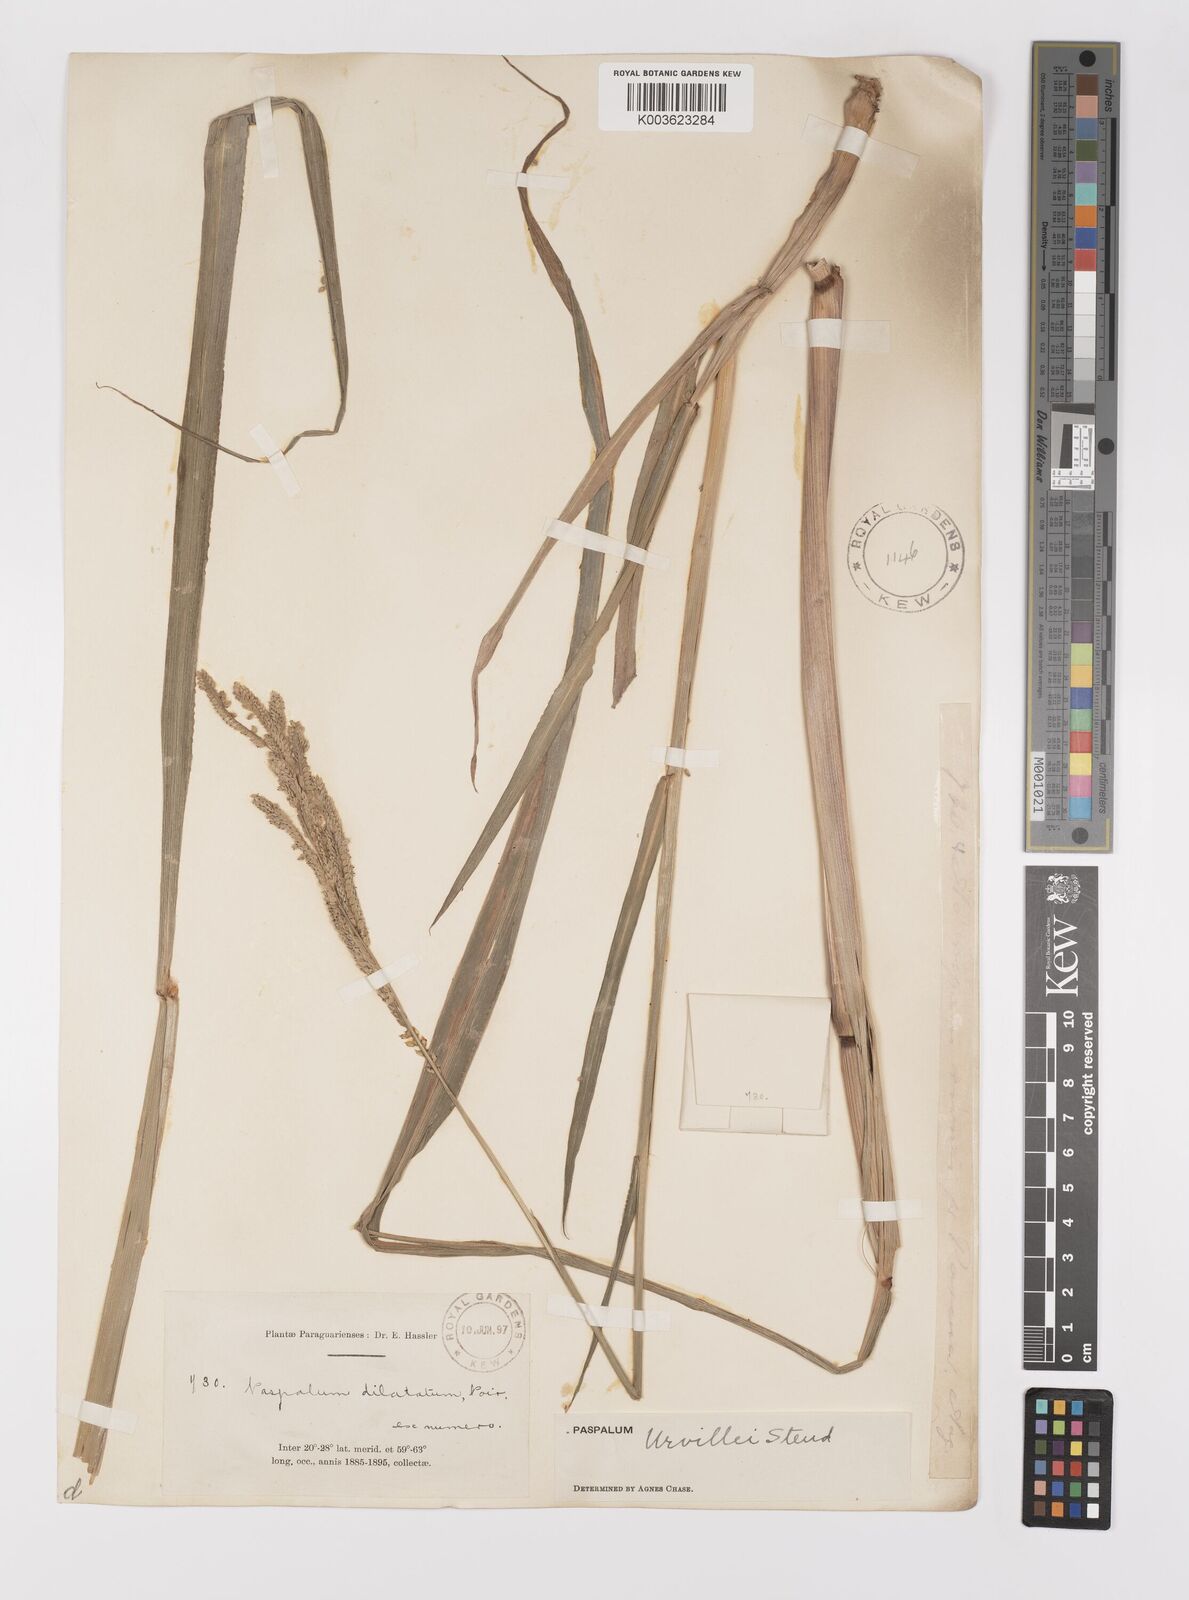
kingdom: Plantae
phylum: Tracheophyta
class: Liliopsida
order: Poales
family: Poaceae
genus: Paspalum
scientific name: Paspalum urvillei
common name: Vasey's grass
